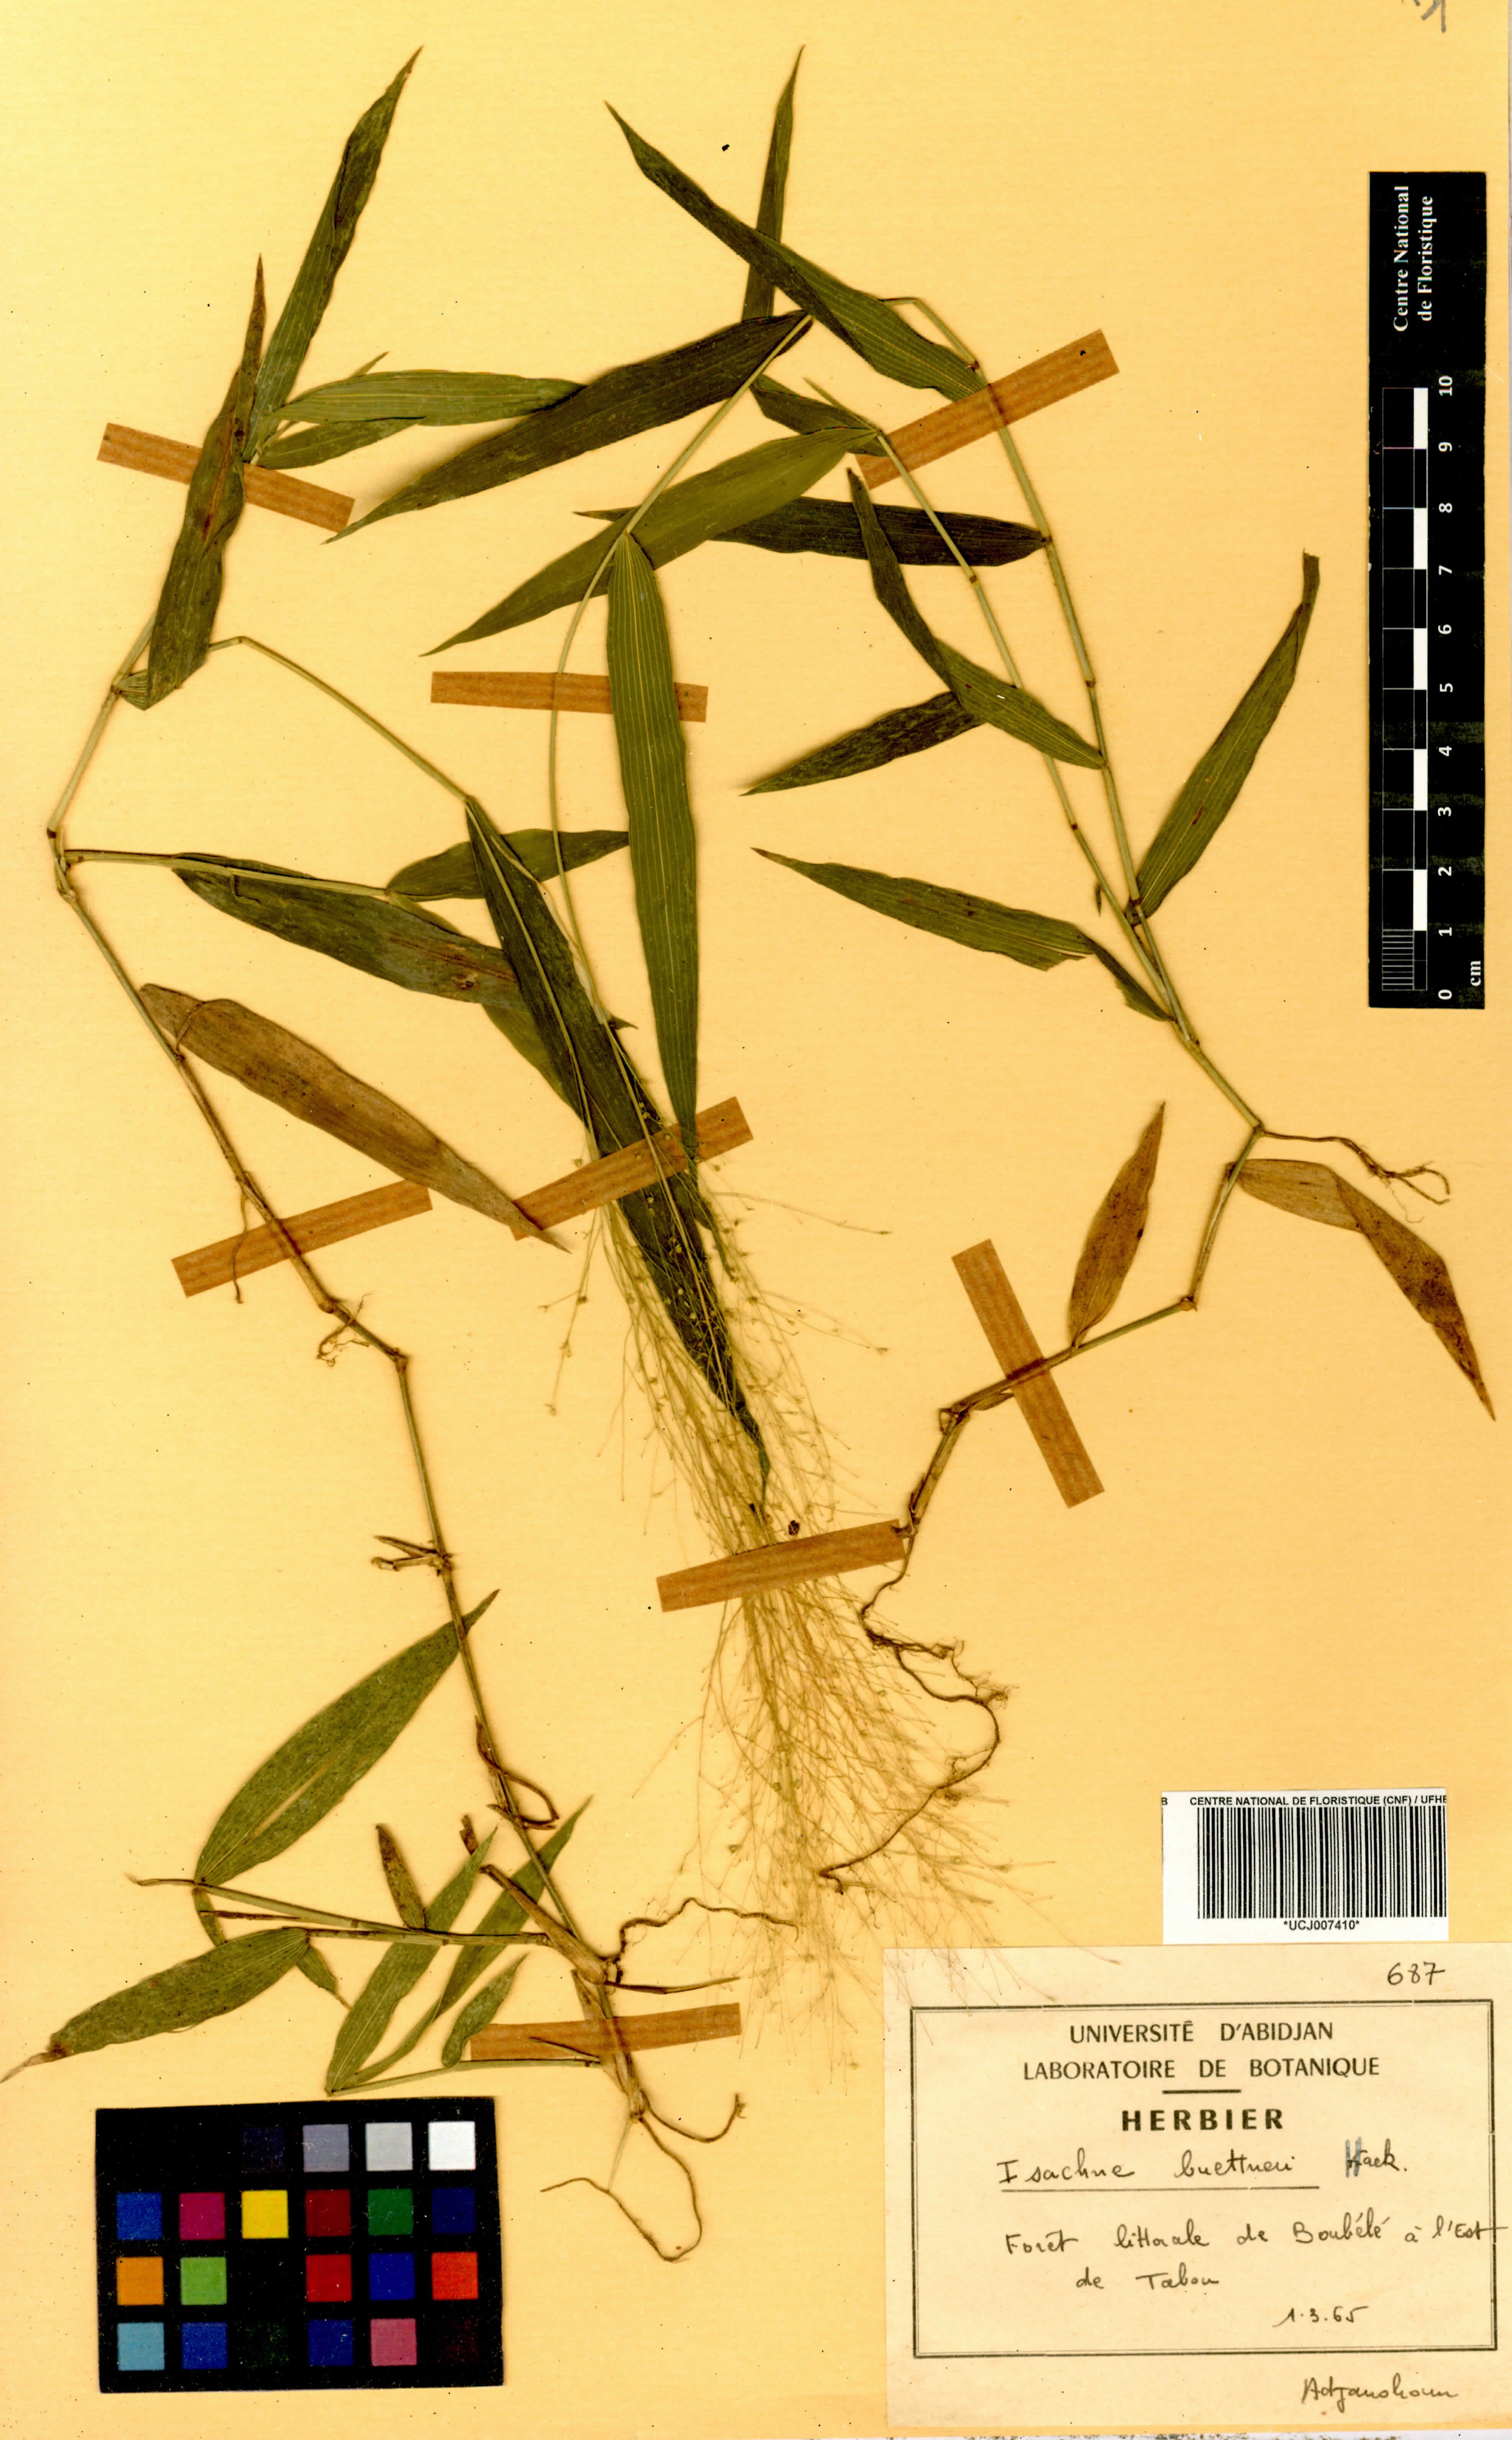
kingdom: Plantae
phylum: Tracheophyta
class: Liliopsida
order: Poales
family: Poaceae
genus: Isachne
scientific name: Isachne albens
